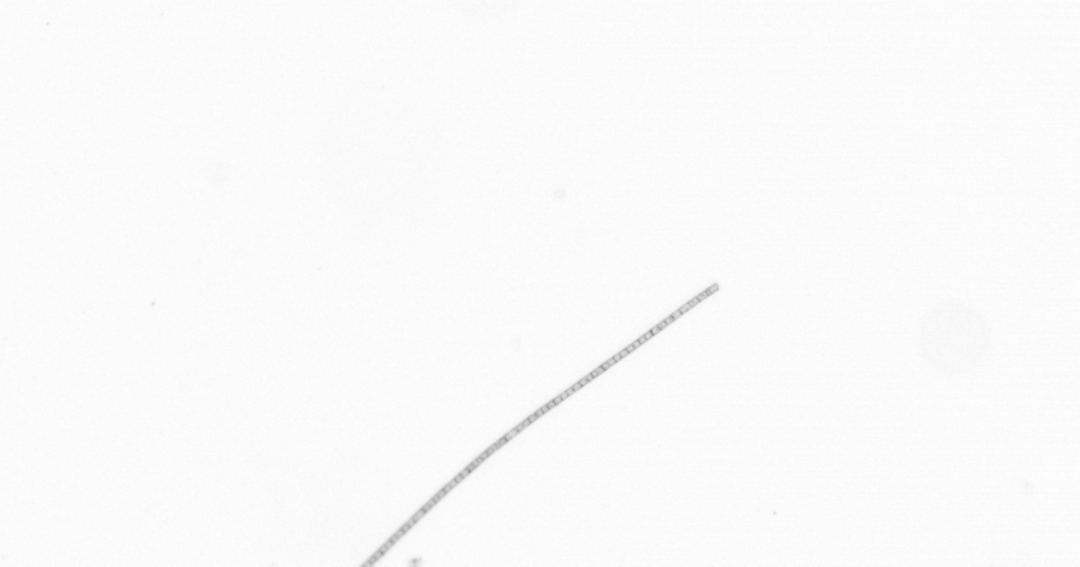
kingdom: Chromista
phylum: Ochrophyta
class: Bacillariophyceae
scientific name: Bacillariophyceae
